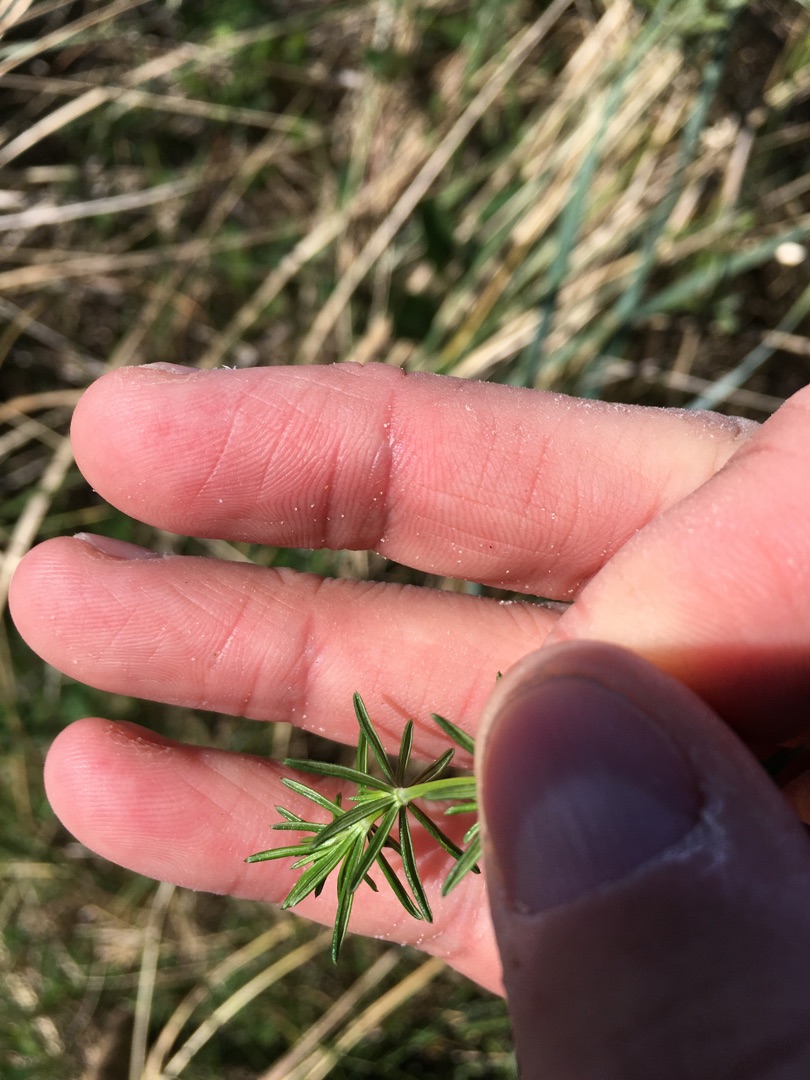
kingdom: Plantae
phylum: Tracheophyta
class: Magnoliopsida
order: Gentianales
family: Rubiaceae
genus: Galium
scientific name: Galium verum
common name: Gul snerre
